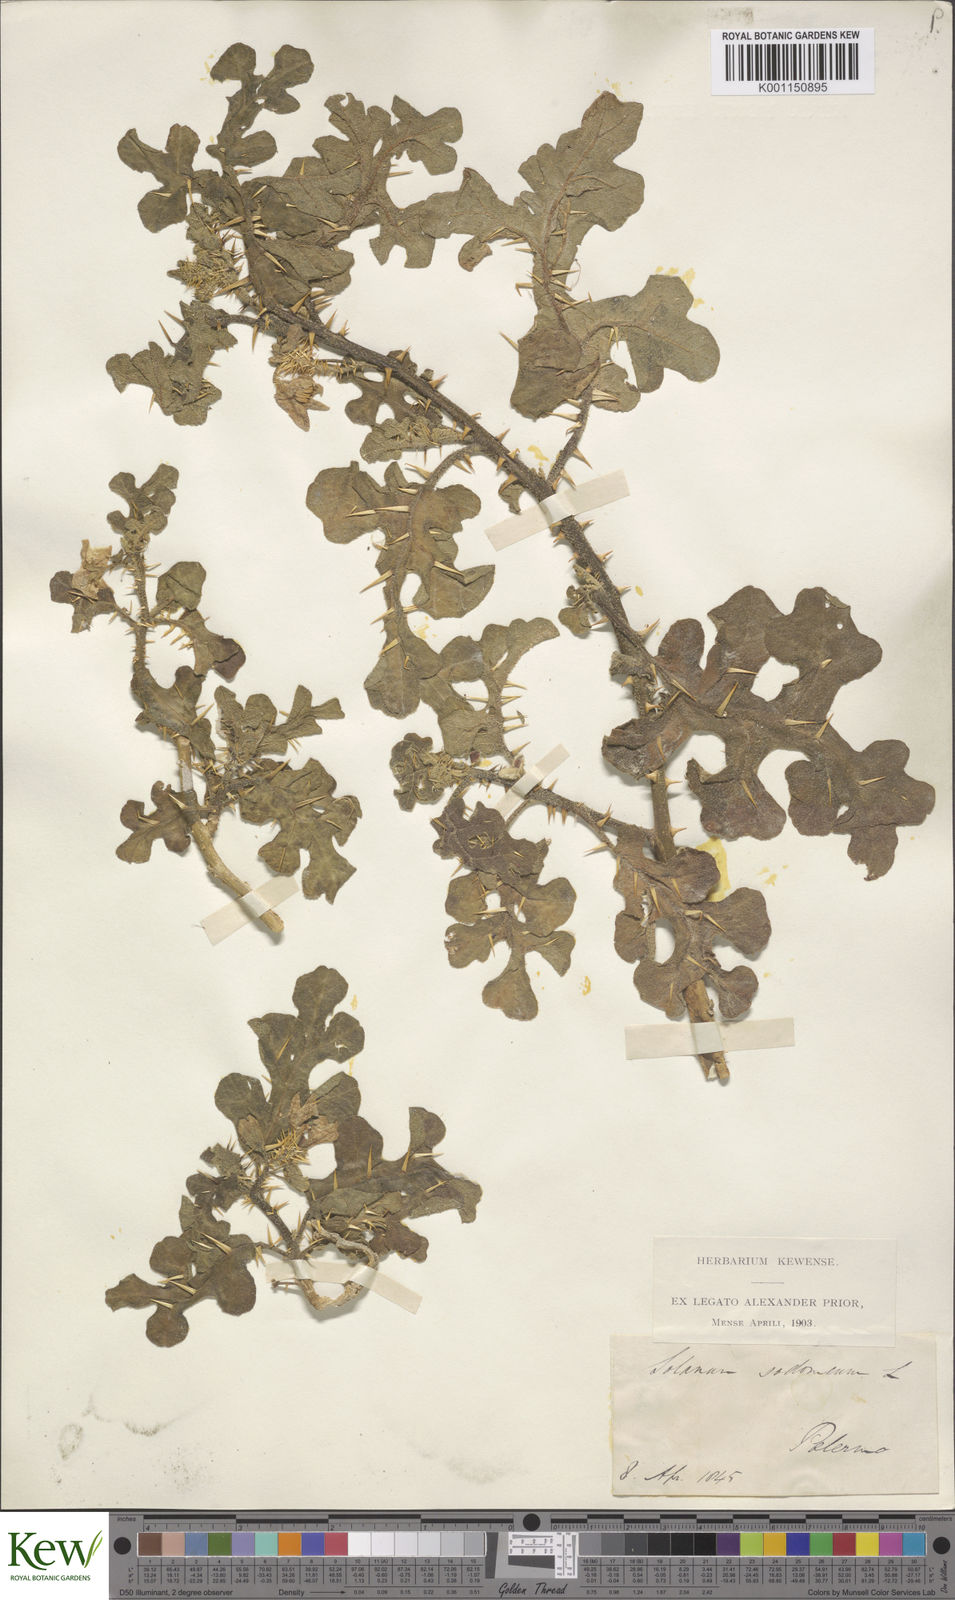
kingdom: Plantae
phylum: Tracheophyta
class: Magnoliopsida
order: Solanales
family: Solanaceae
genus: Solanum
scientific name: Solanum anguivi
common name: Forest bitterberry
